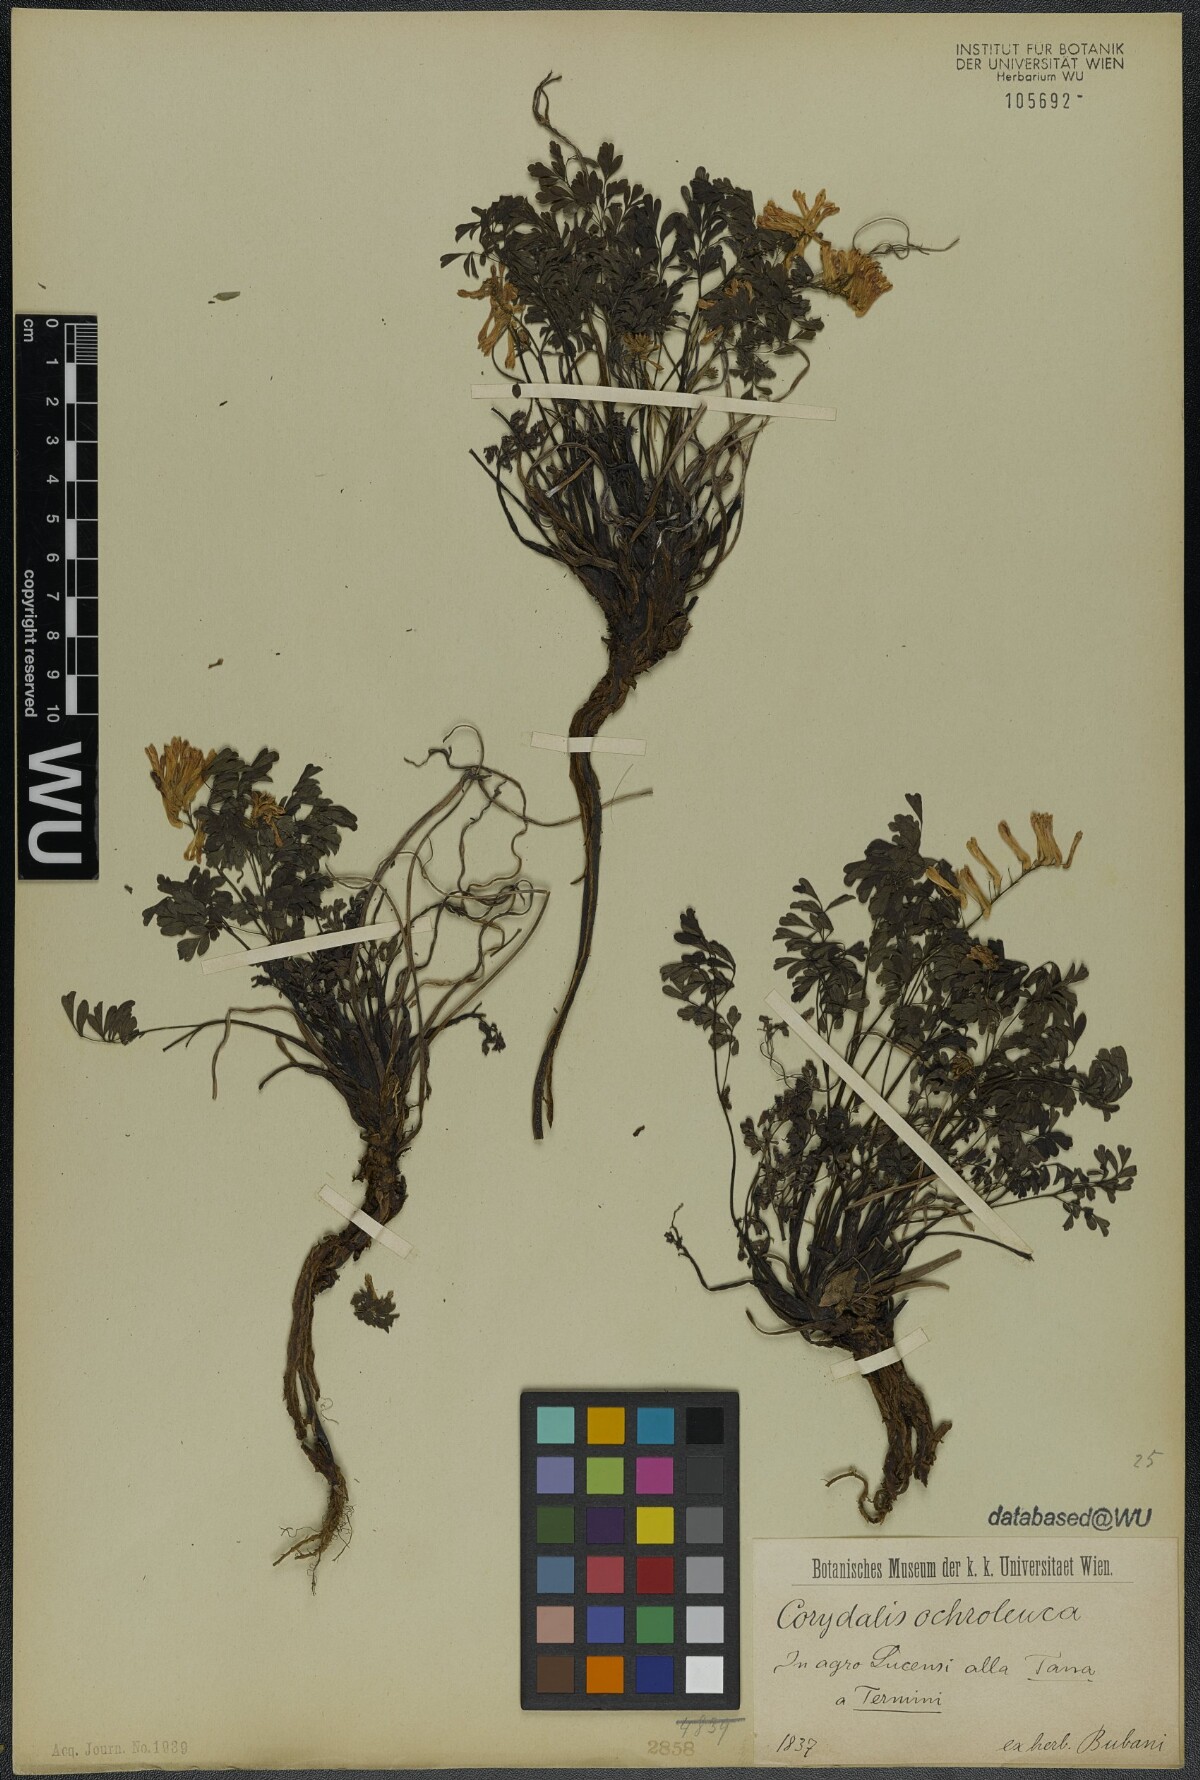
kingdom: Plantae
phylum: Tracheophyta
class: Magnoliopsida
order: Ranunculales
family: Papaveraceae
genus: Pseudofumaria
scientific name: Pseudofumaria alba
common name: Pale corydalis
